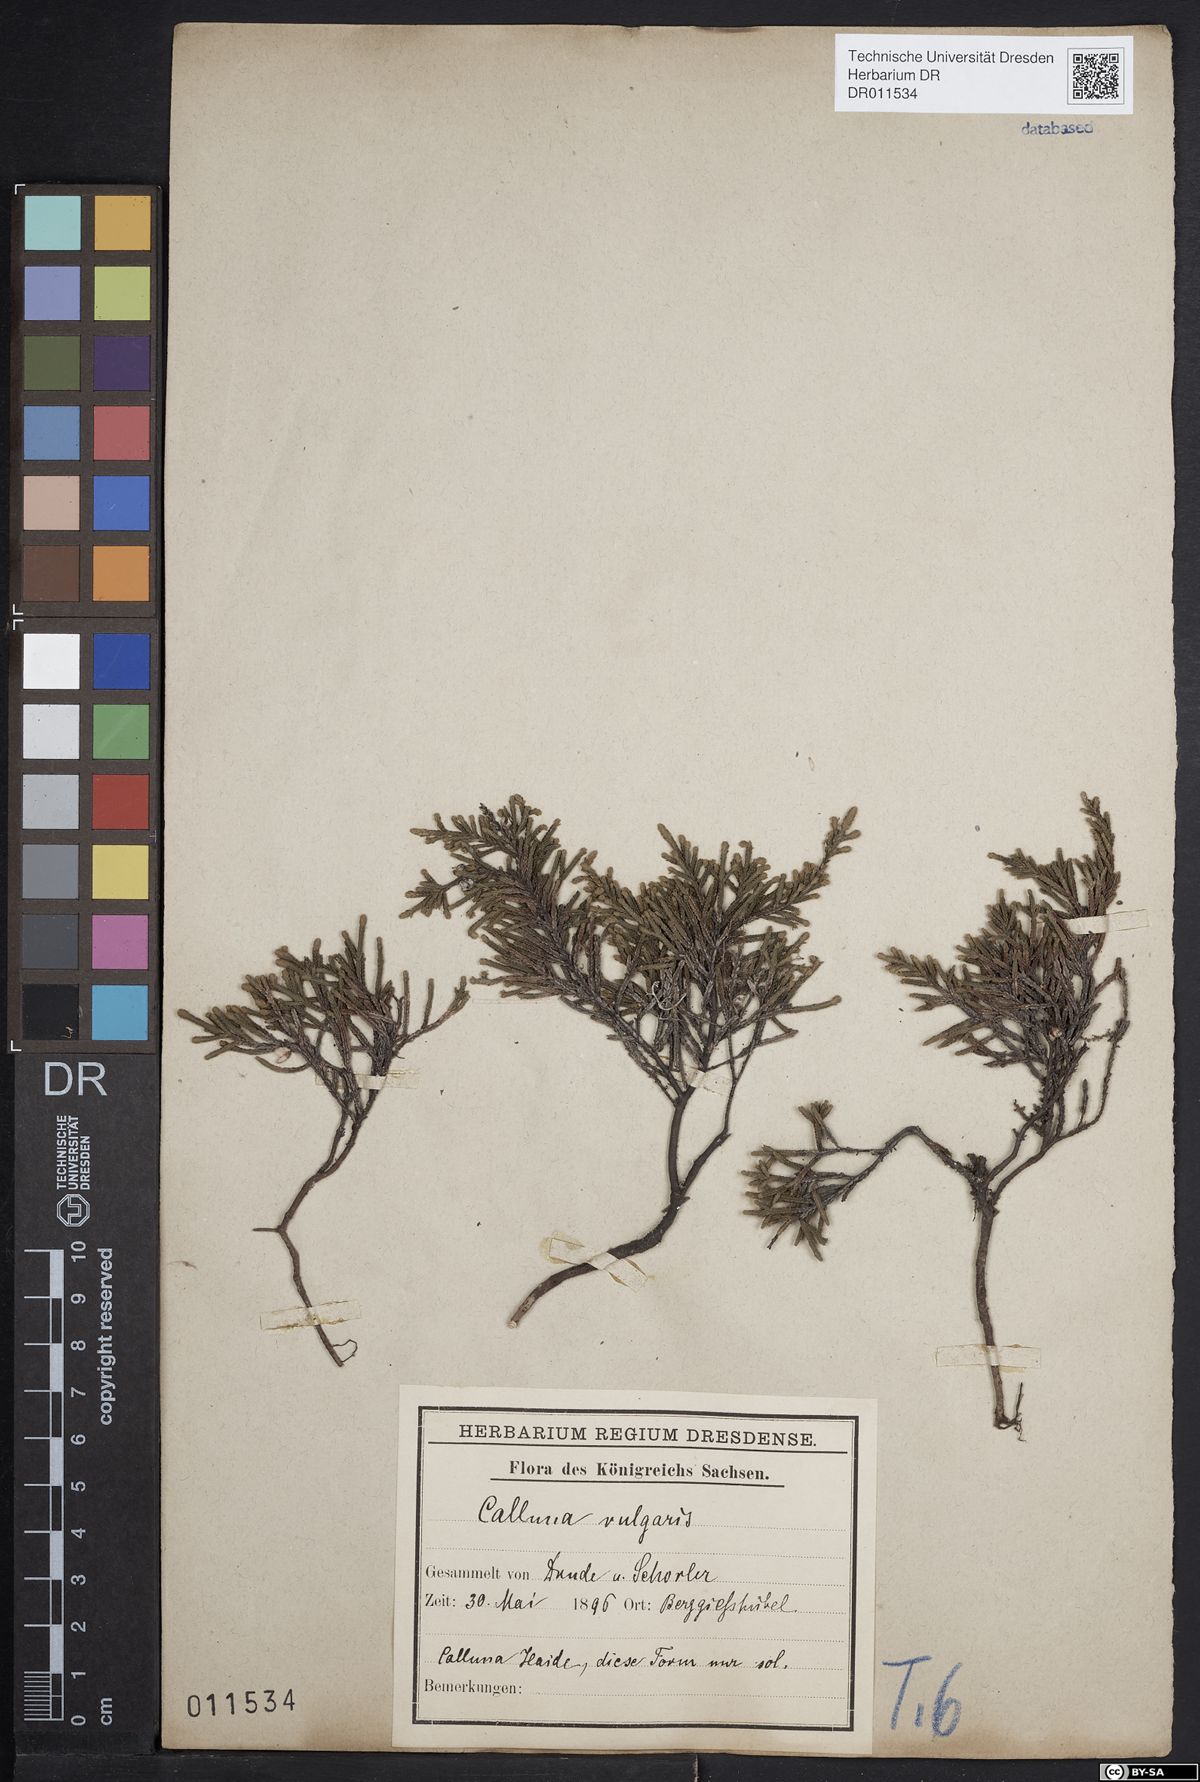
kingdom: Plantae
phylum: Tracheophyta
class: Magnoliopsida
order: Ericales
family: Ericaceae
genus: Calluna
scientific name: Calluna vulgaris
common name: Heather
